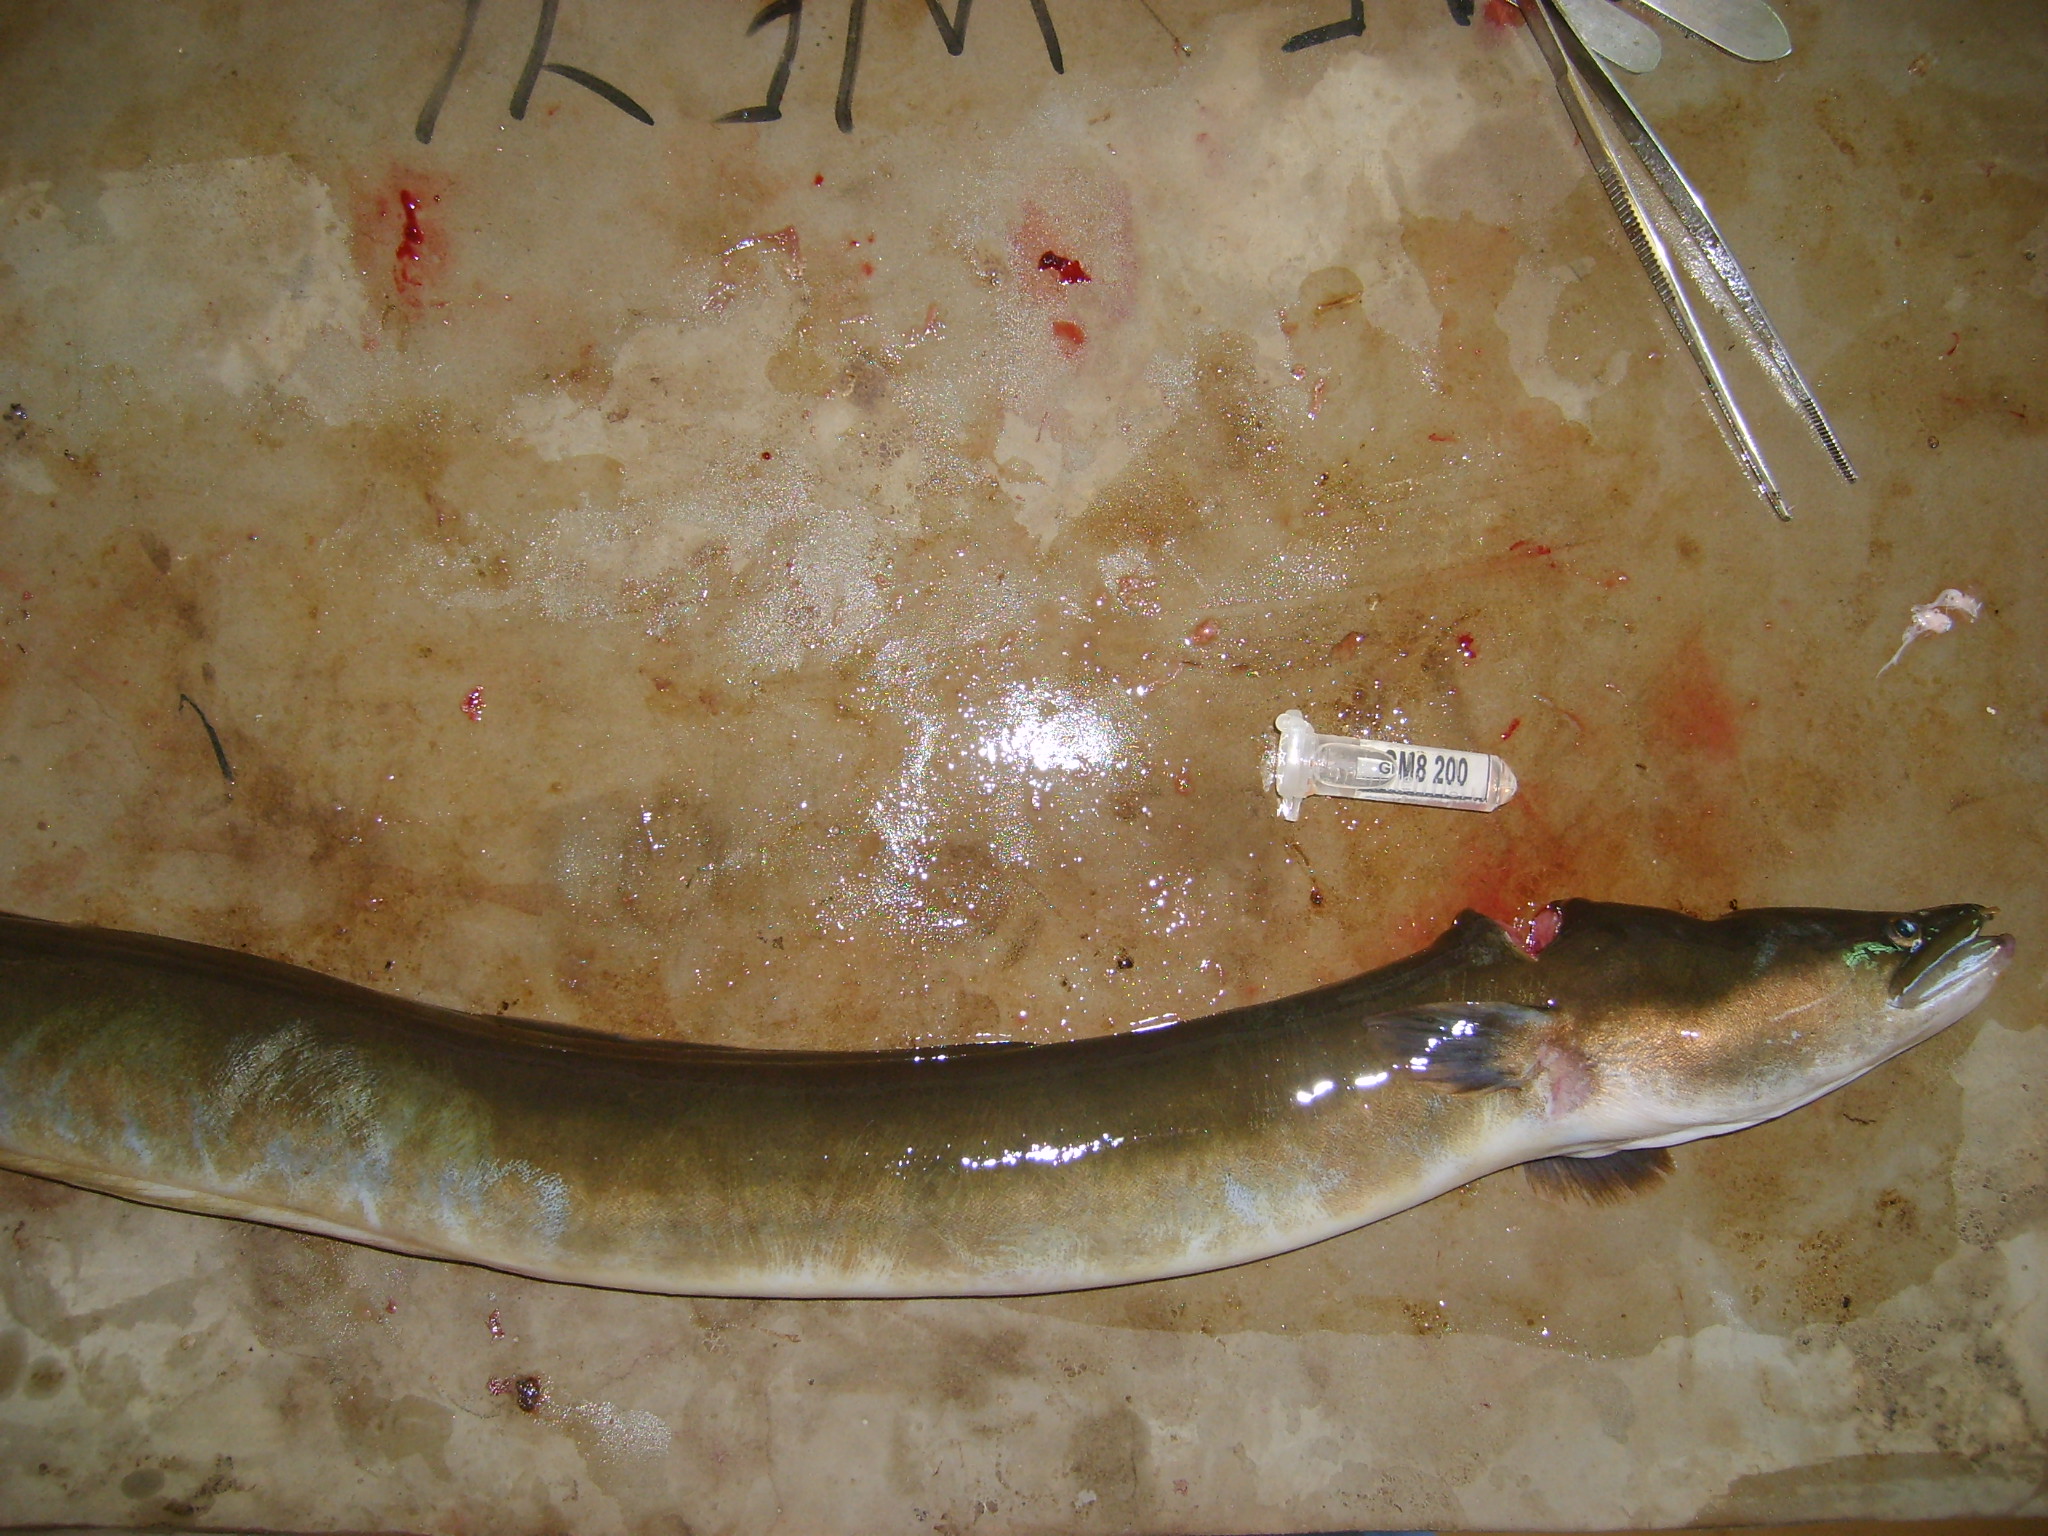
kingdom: Animalia
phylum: Chordata
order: Anguilliformes
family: Anguillidae
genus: Anguilla
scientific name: Anguilla mossambica
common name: African longfin eel
